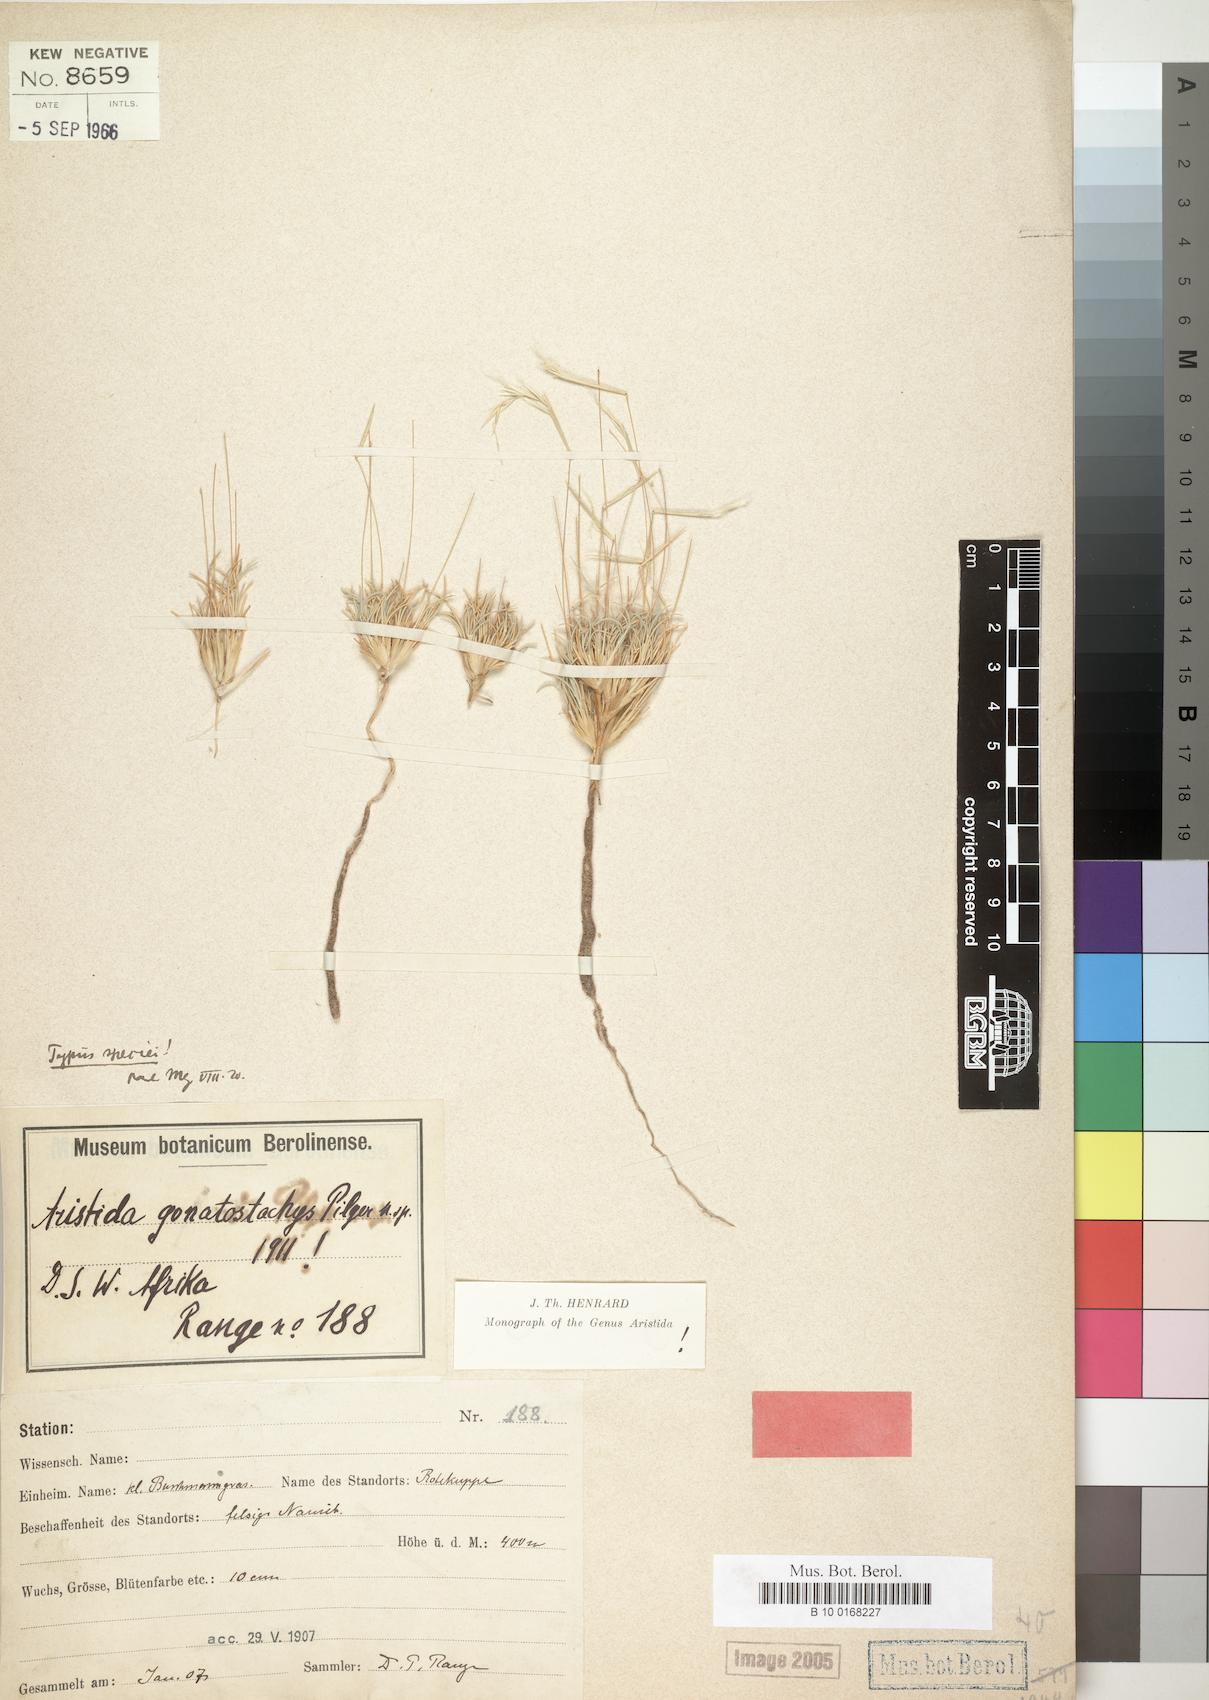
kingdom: Plantae
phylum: Tracheophyta
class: Liliopsida
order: Poales
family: Poaceae
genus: Stipagrostis
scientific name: Stipagrostis gonatostachys
